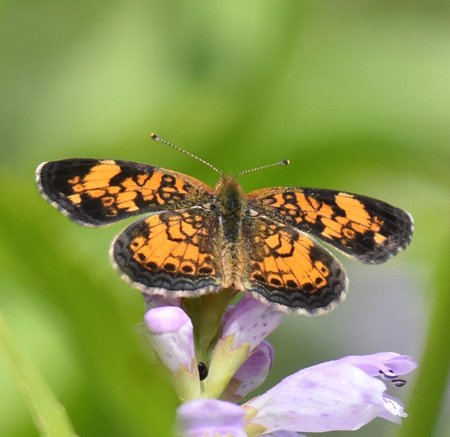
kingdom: Animalia
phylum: Arthropoda
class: Insecta
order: Lepidoptera
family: Nymphalidae
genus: Phyciodes
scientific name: Phyciodes tharos
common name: Northern Crescent
